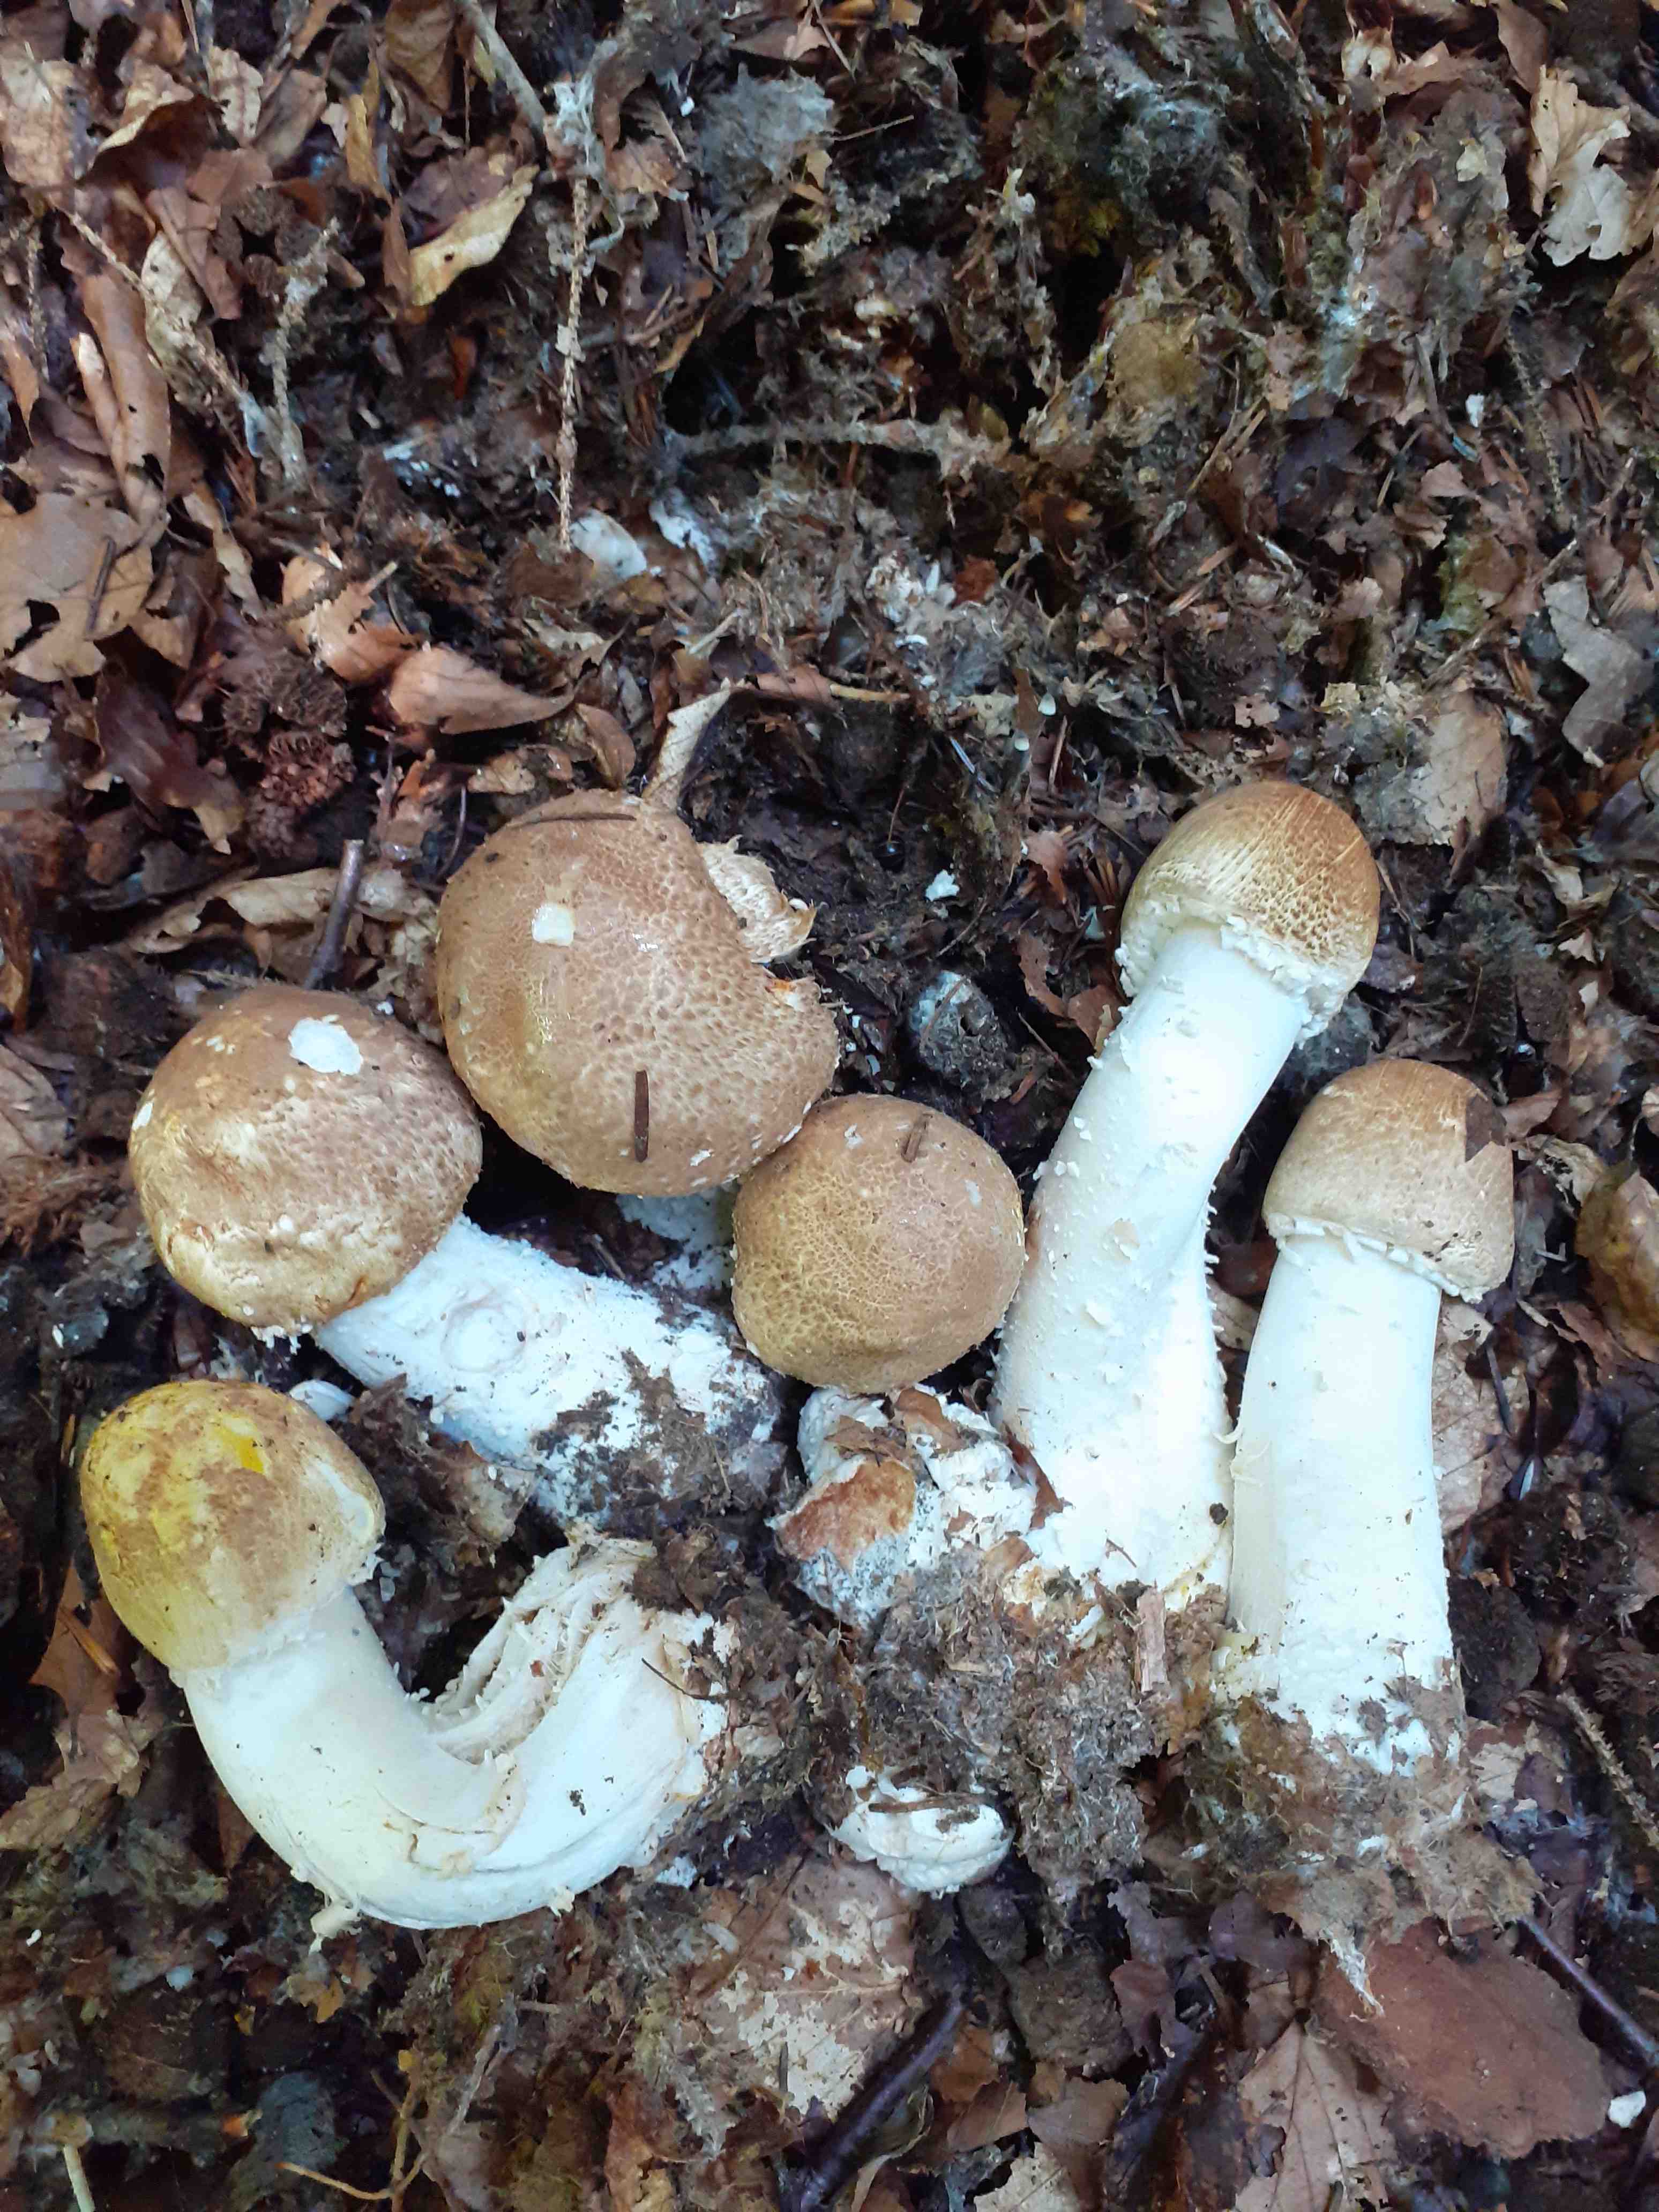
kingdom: Fungi
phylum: Basidiomycota
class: Agaricomycetes
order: Agaricales
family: Agaricaceae
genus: Agaricus
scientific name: Agaricus augustus
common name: prægtig champignon
